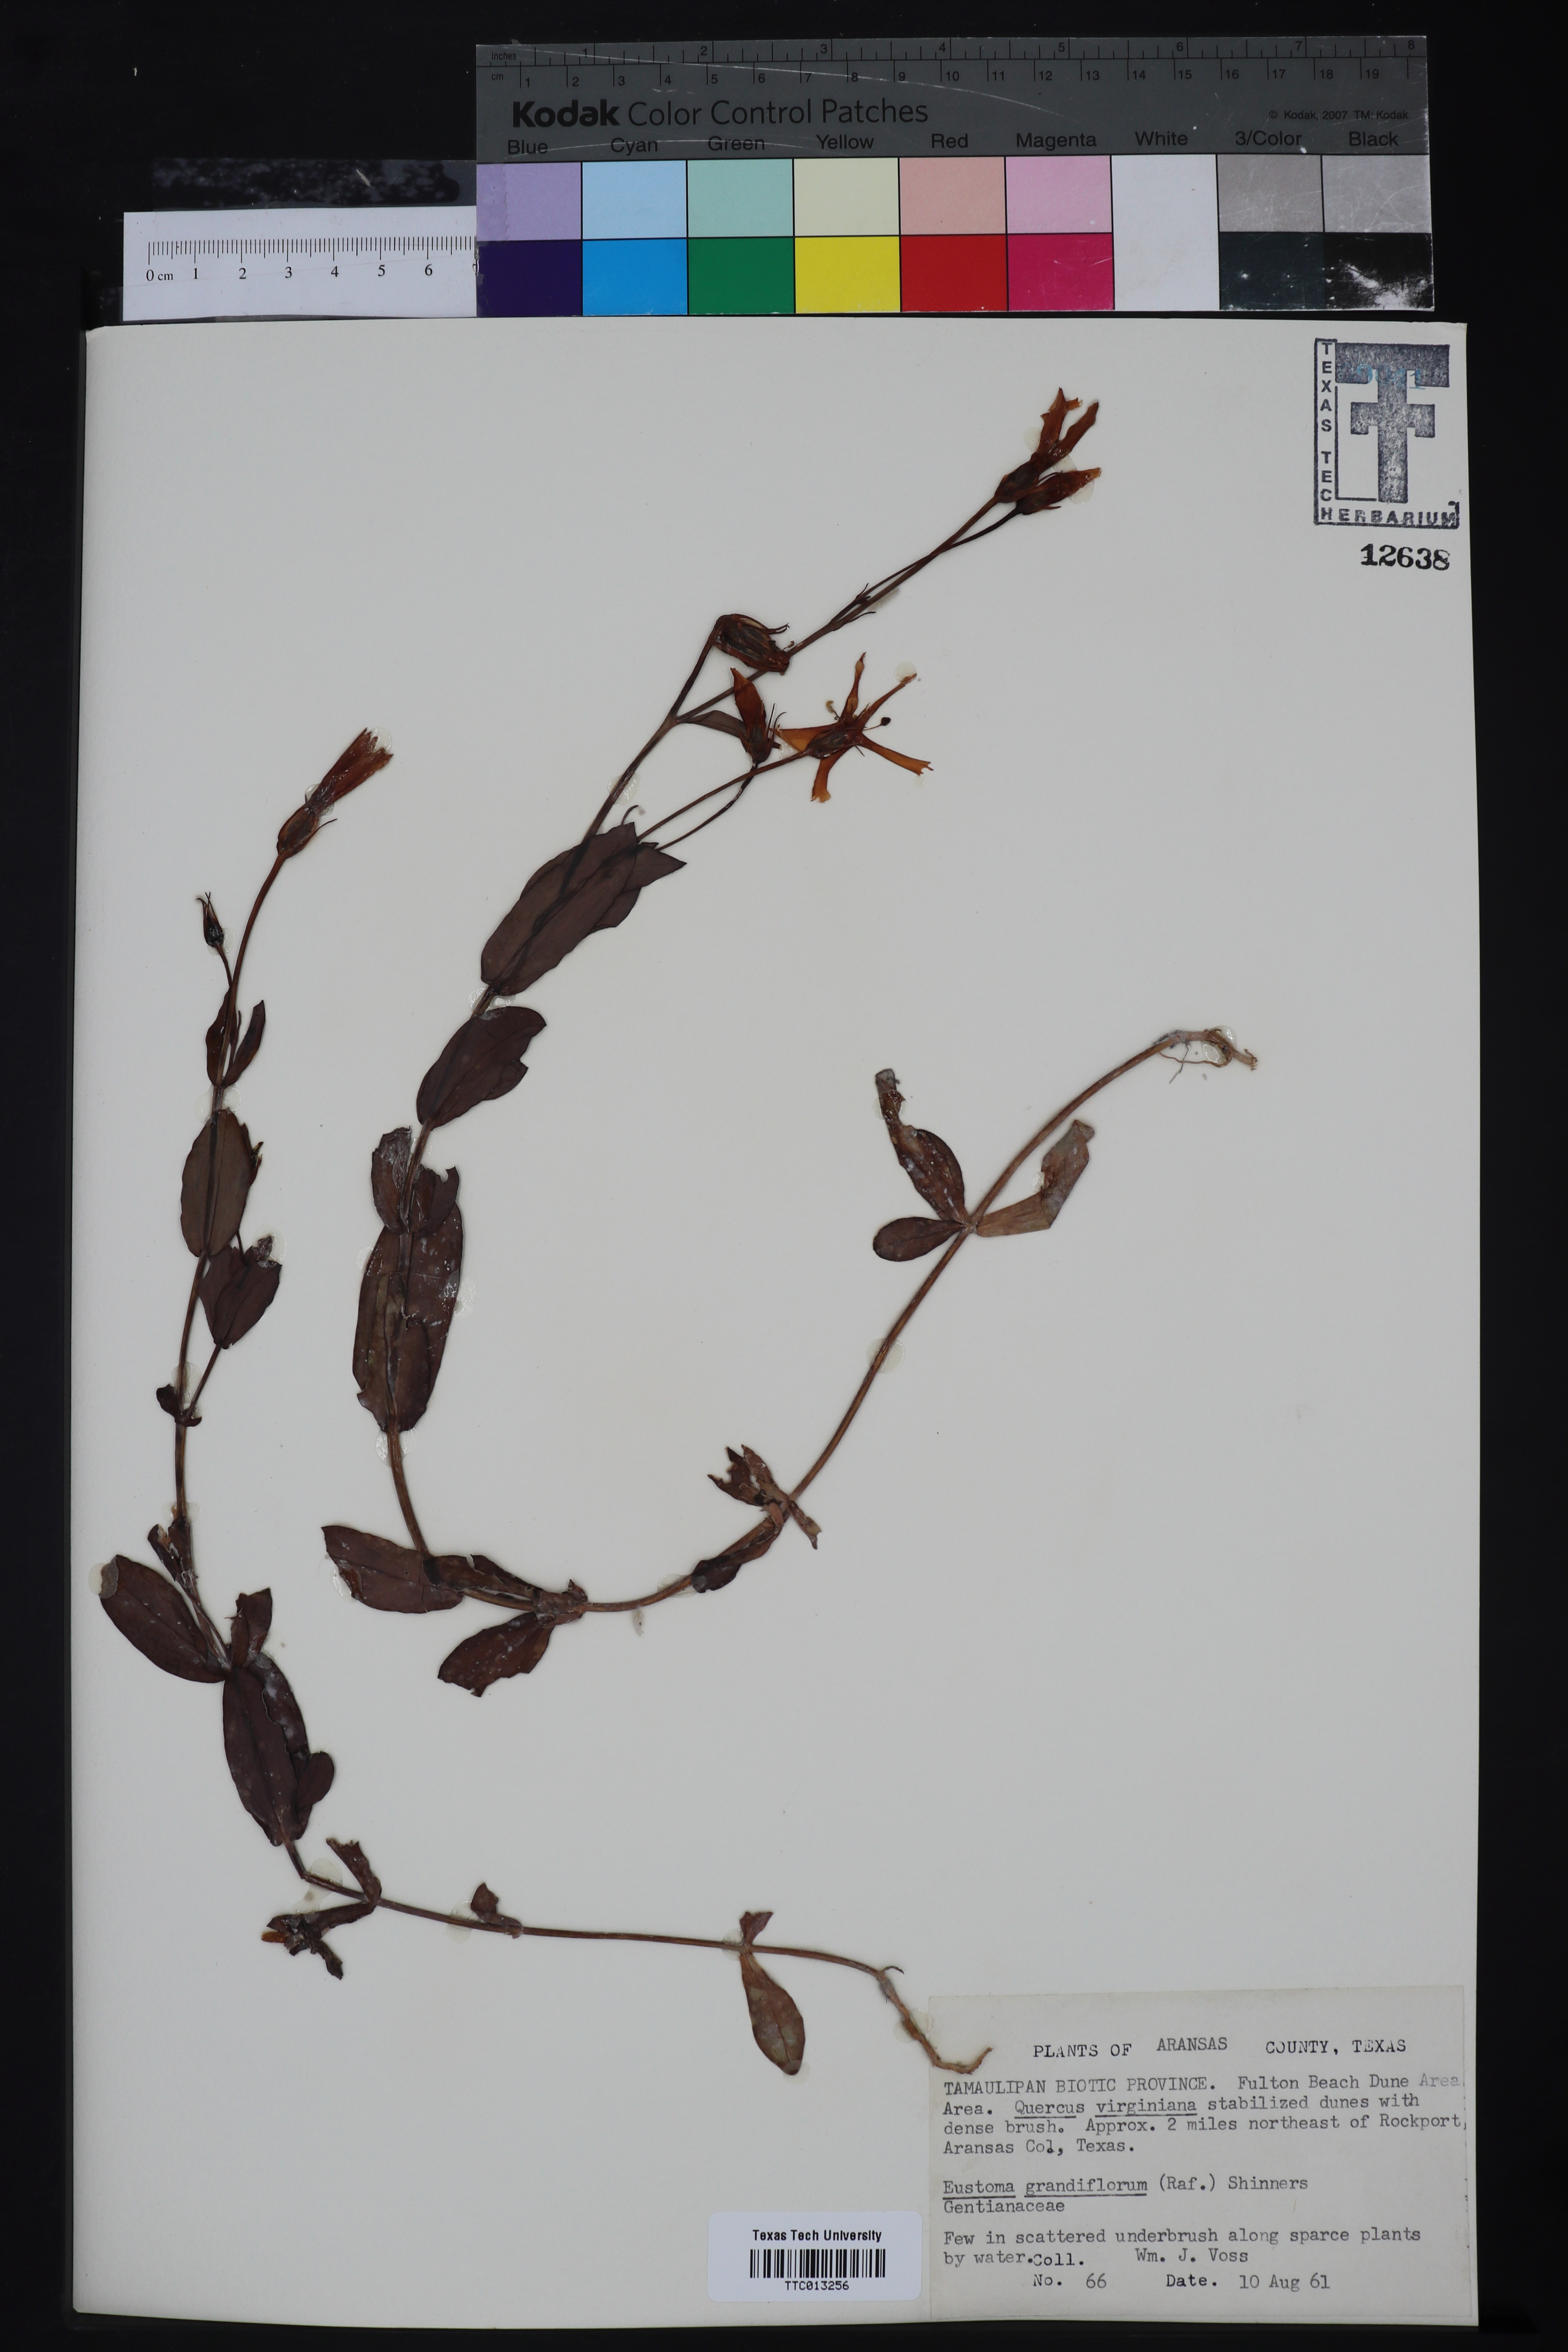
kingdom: Plantae
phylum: Tracheophyta
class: Magnoliopsida
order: Gentianales
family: Gentianaceae
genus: Eustoma
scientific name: Eustoma russellianum
